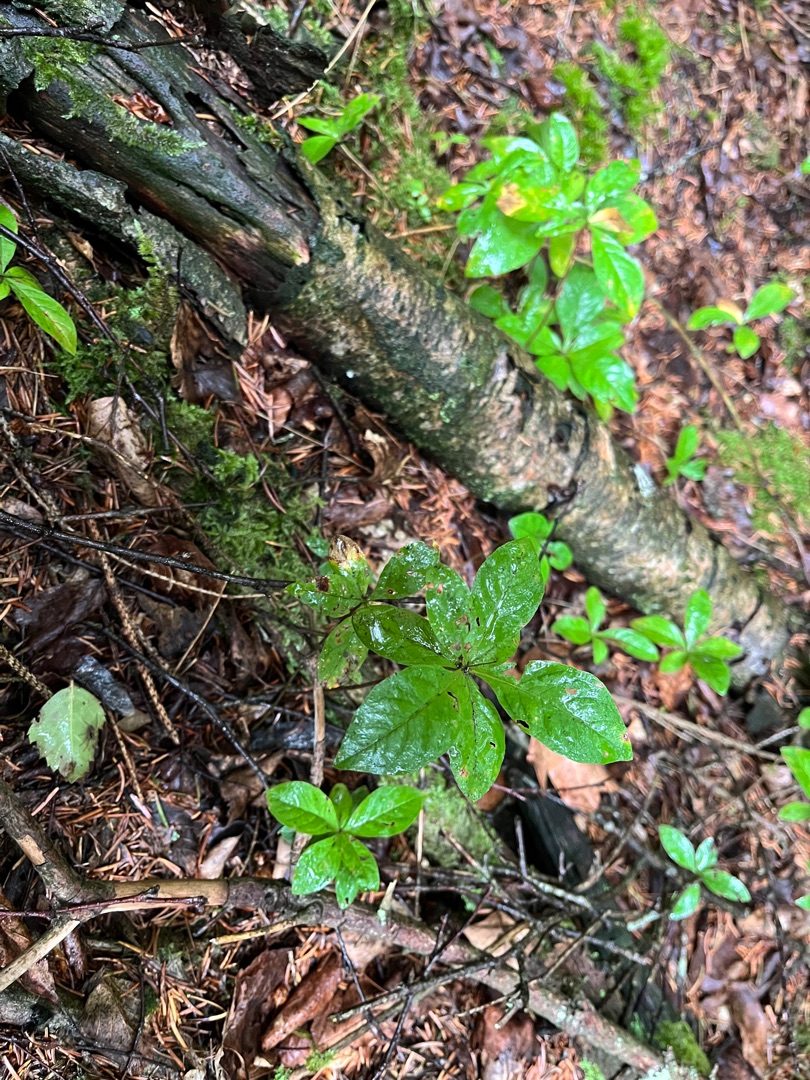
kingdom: Plantae
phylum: Tracheophyta
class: Magnoliopsida
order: Ericales
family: Primulaceae
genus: Lysimachia
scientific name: Lysimachia europaea
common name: Skovstjerne
